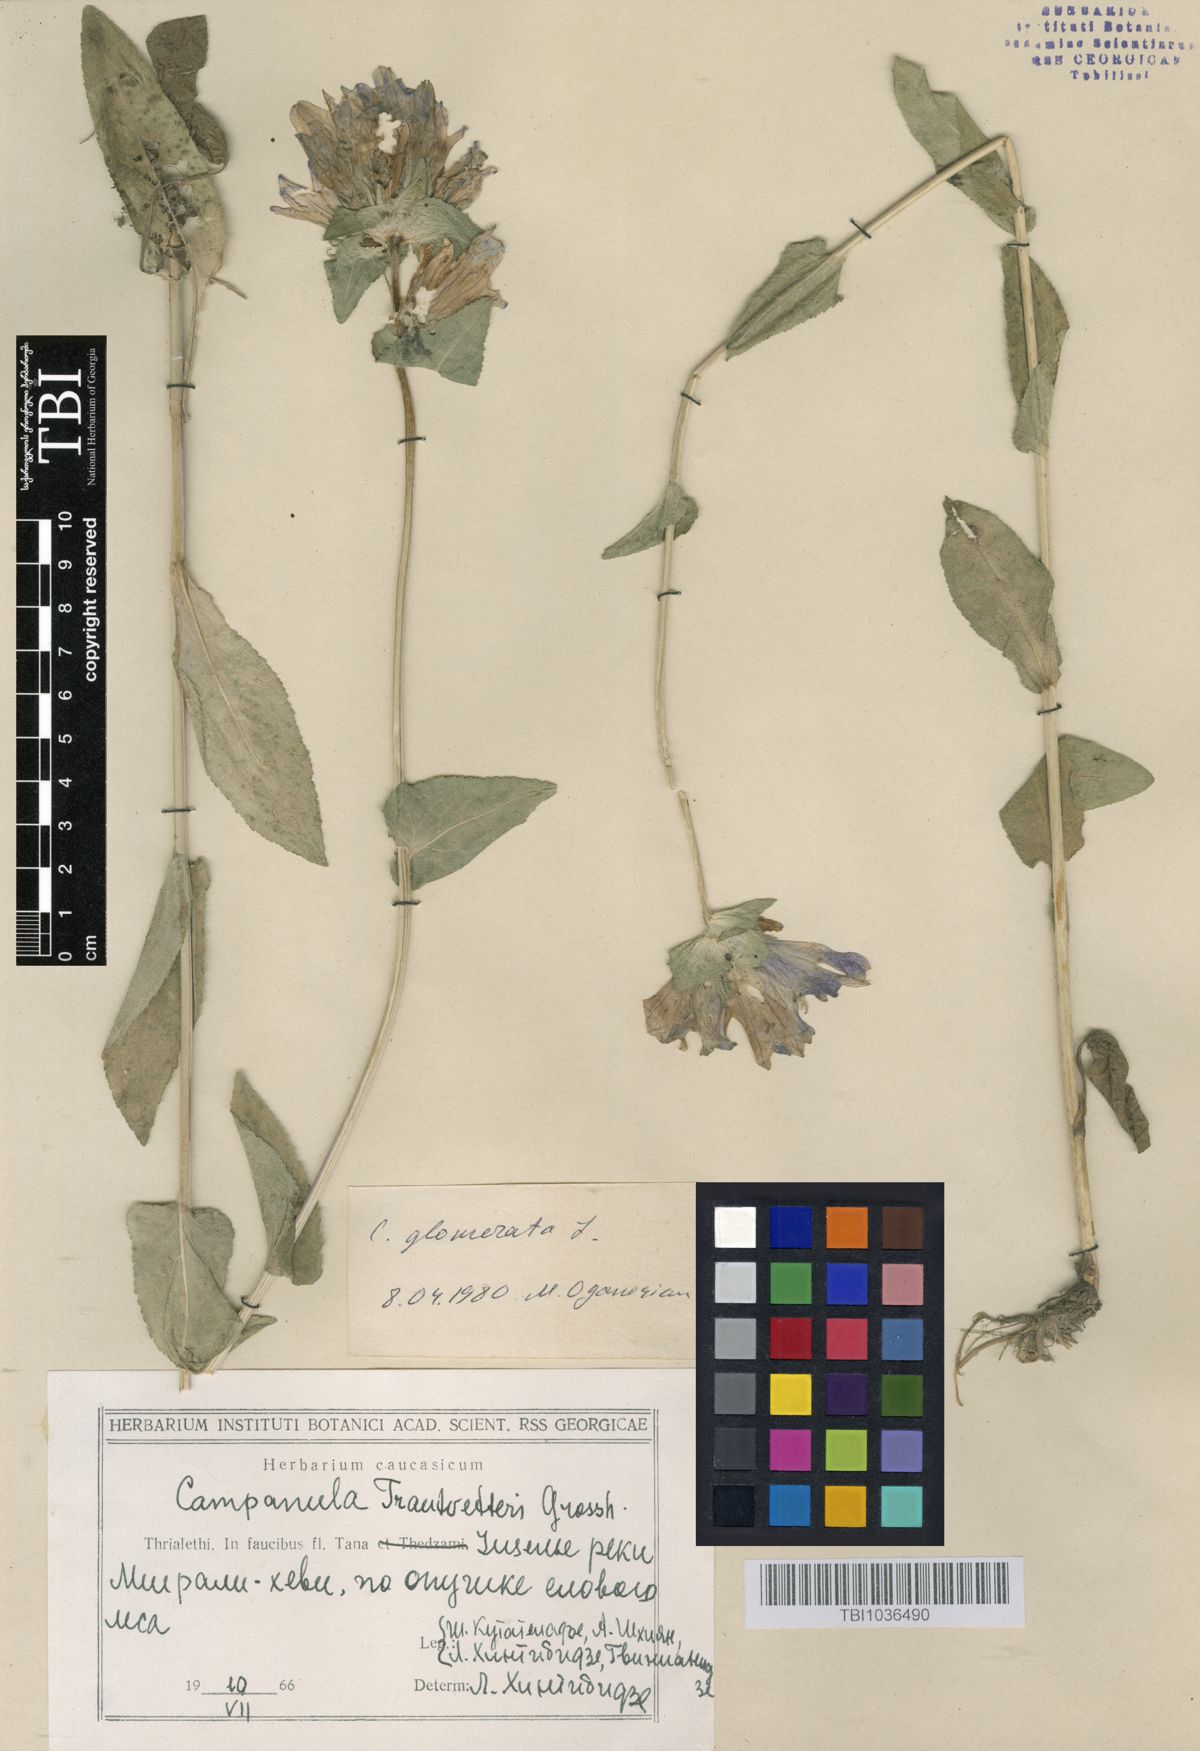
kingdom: Plantae
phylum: Tracheophyta
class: Magnoliopsida
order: Asterales
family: Campanulaceae
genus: Campanula
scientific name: Campanula glomerata
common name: Clustered bellflower
